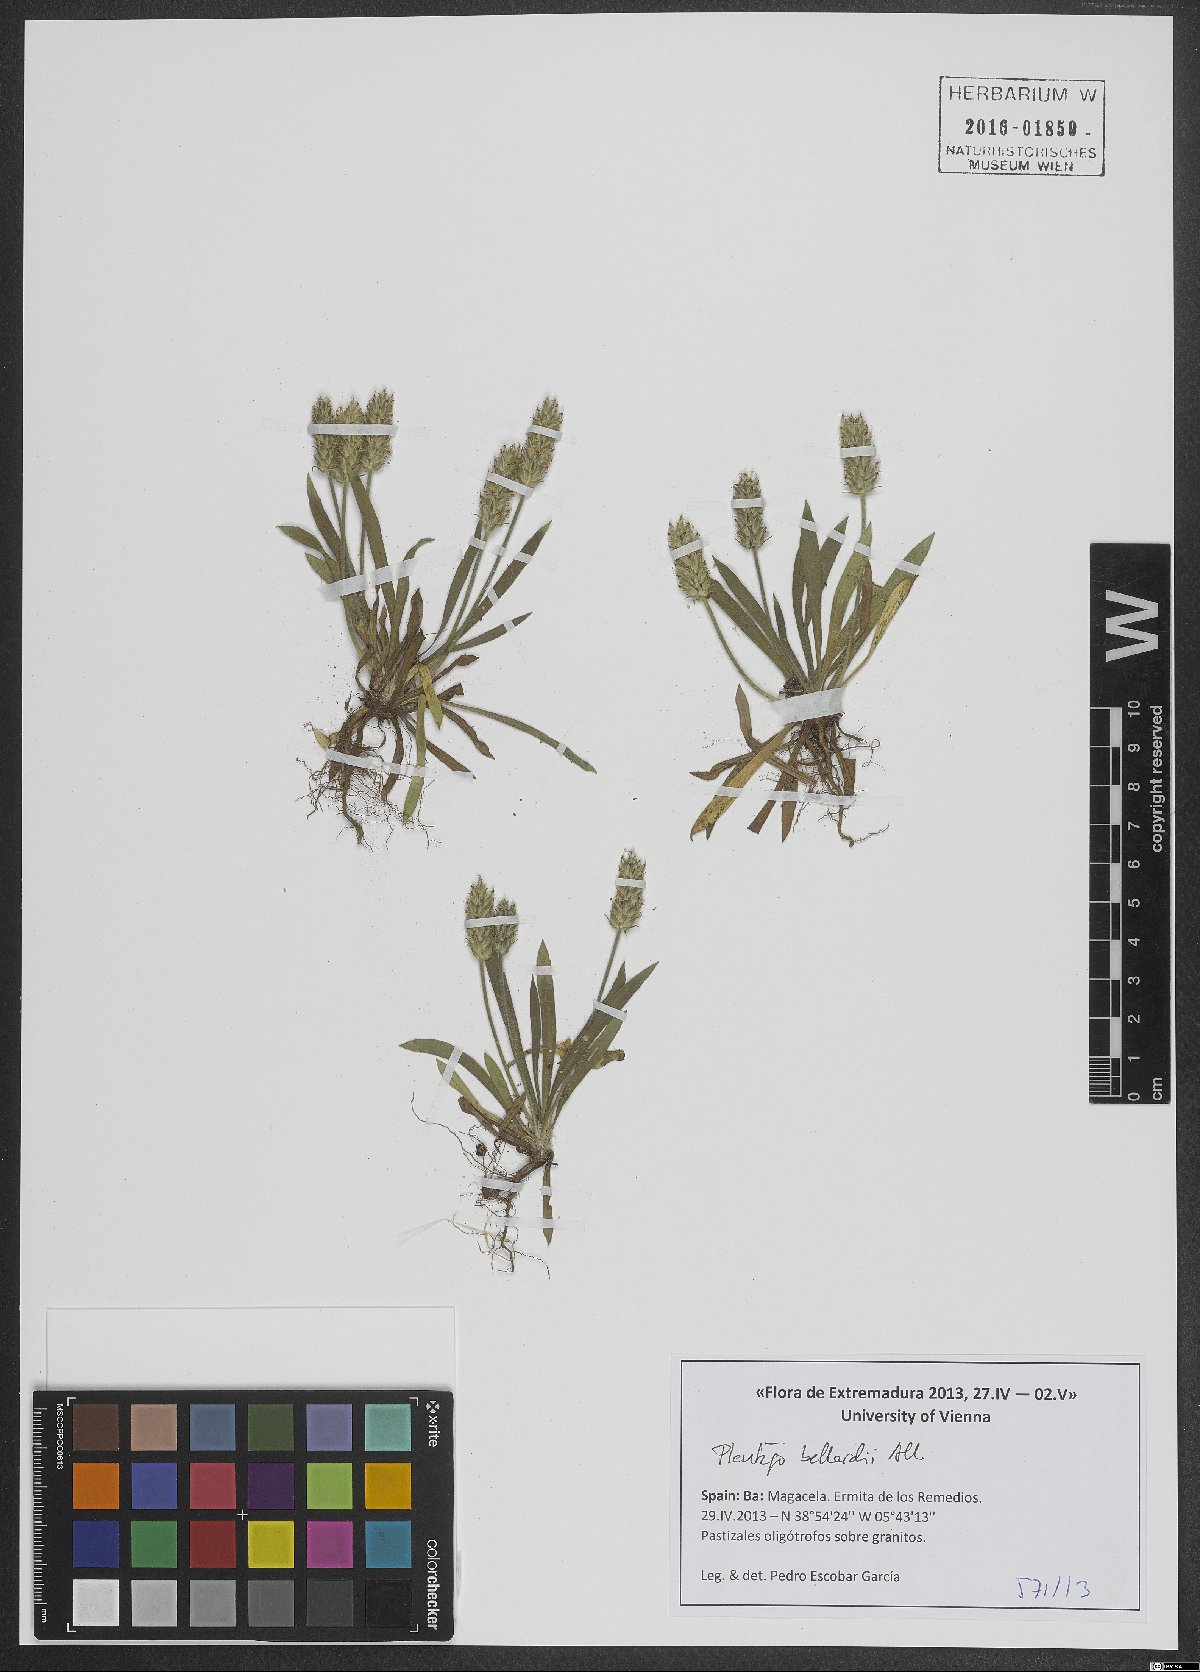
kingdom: Plantae
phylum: Tracheophyta
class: Magnoliopsida
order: Lamiales
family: Plantaginaceae
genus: Plantago
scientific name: Plantago bellardii
